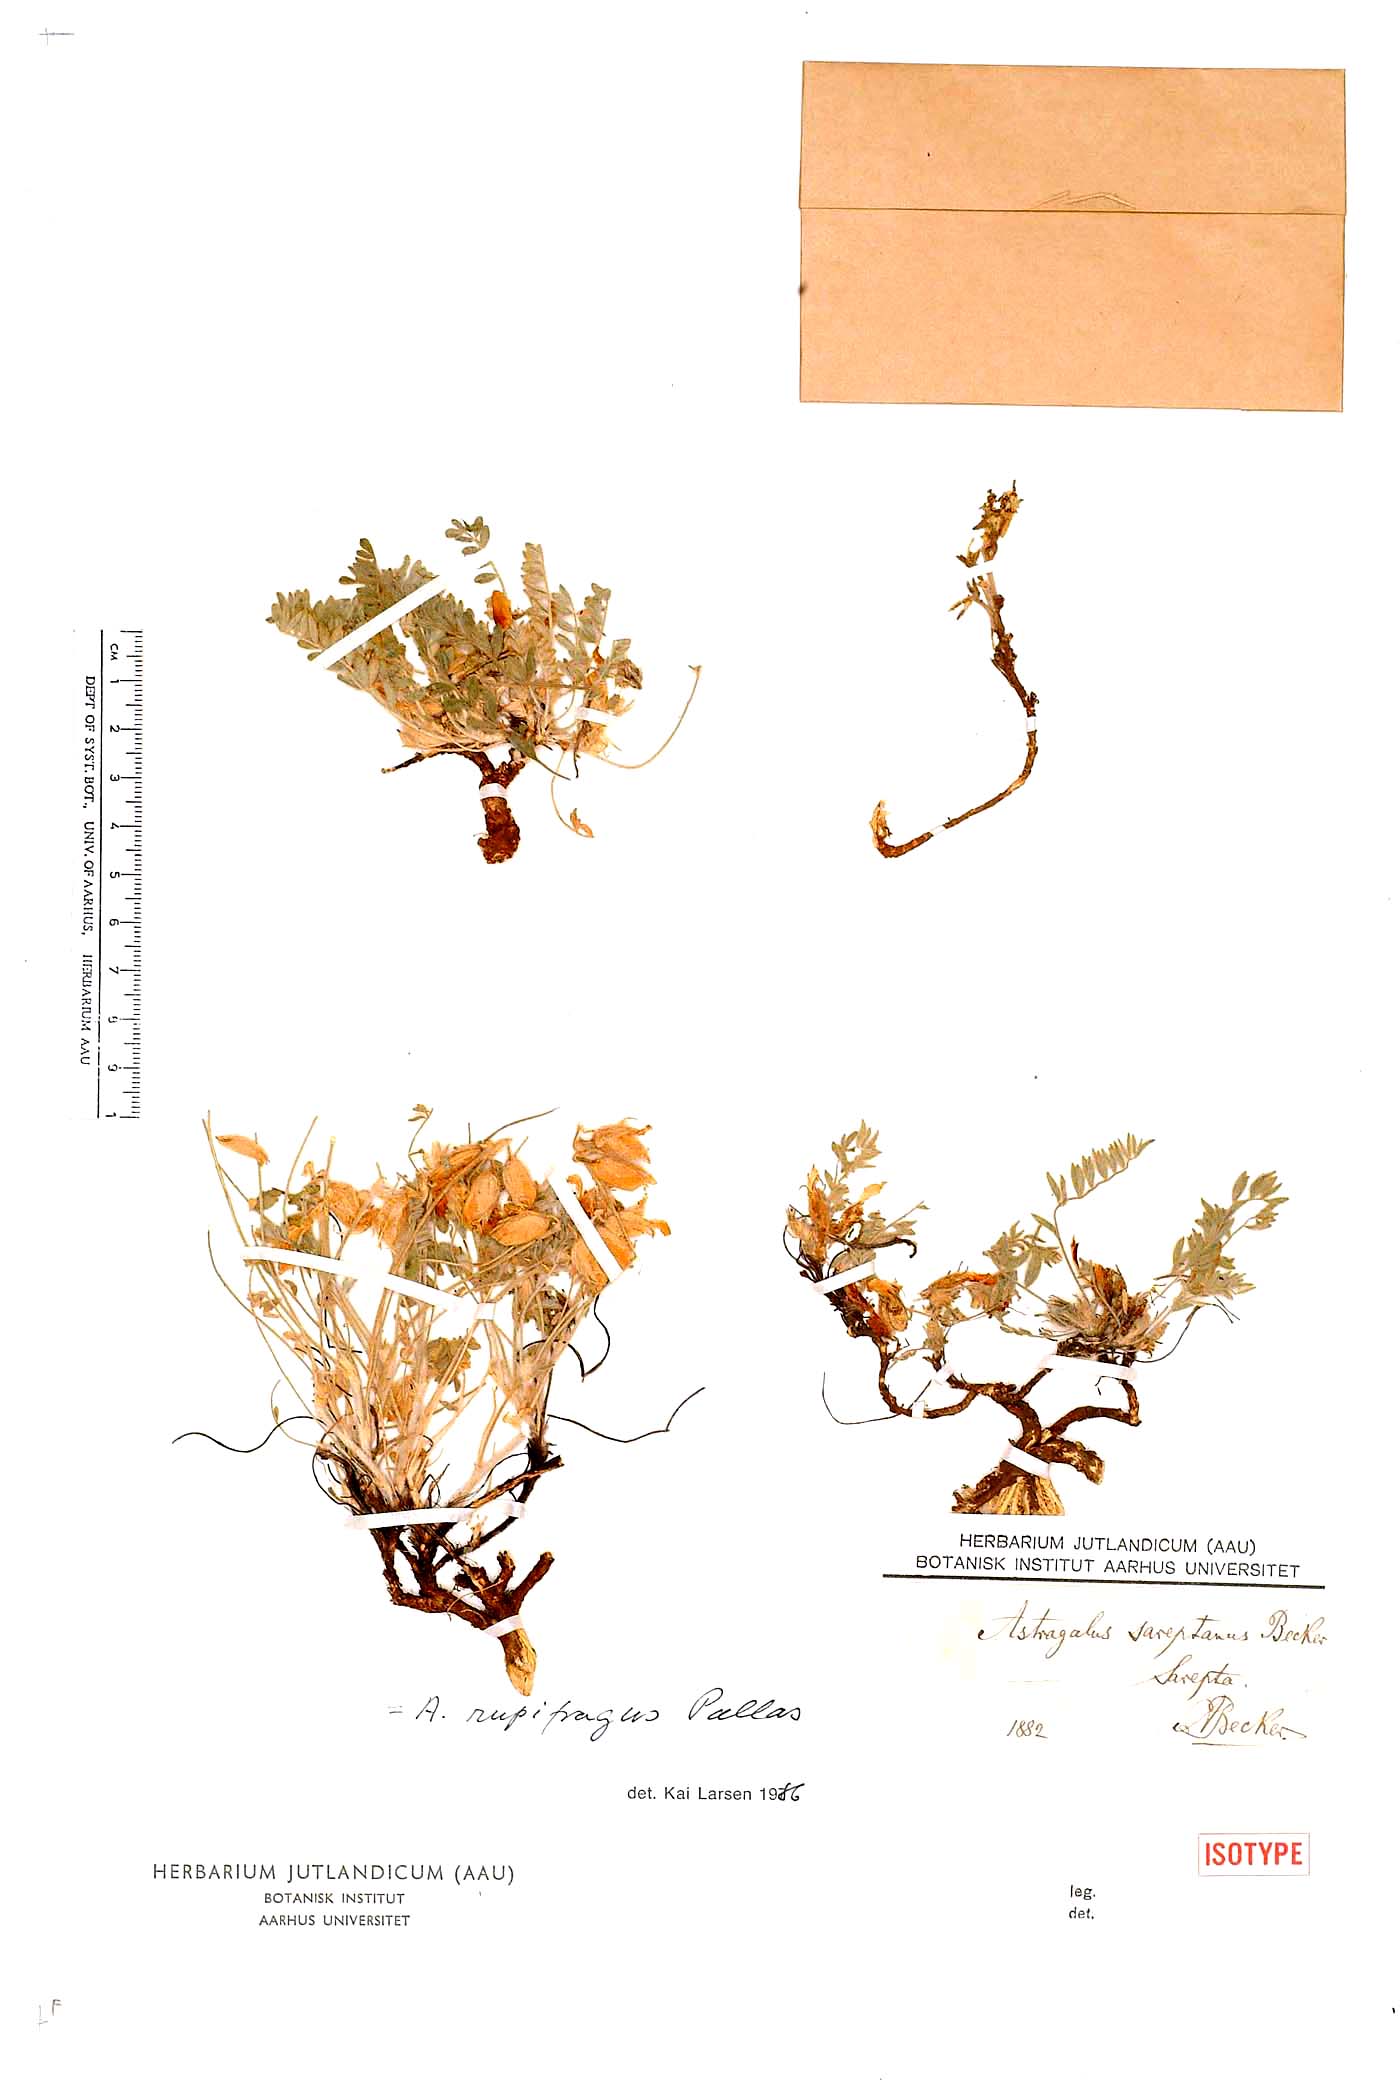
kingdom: Plantae
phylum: Tracheophyta
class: Magnoliopsida
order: Fabales
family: Fabaceae
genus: Astragalus
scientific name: Astragalus rupifragus
